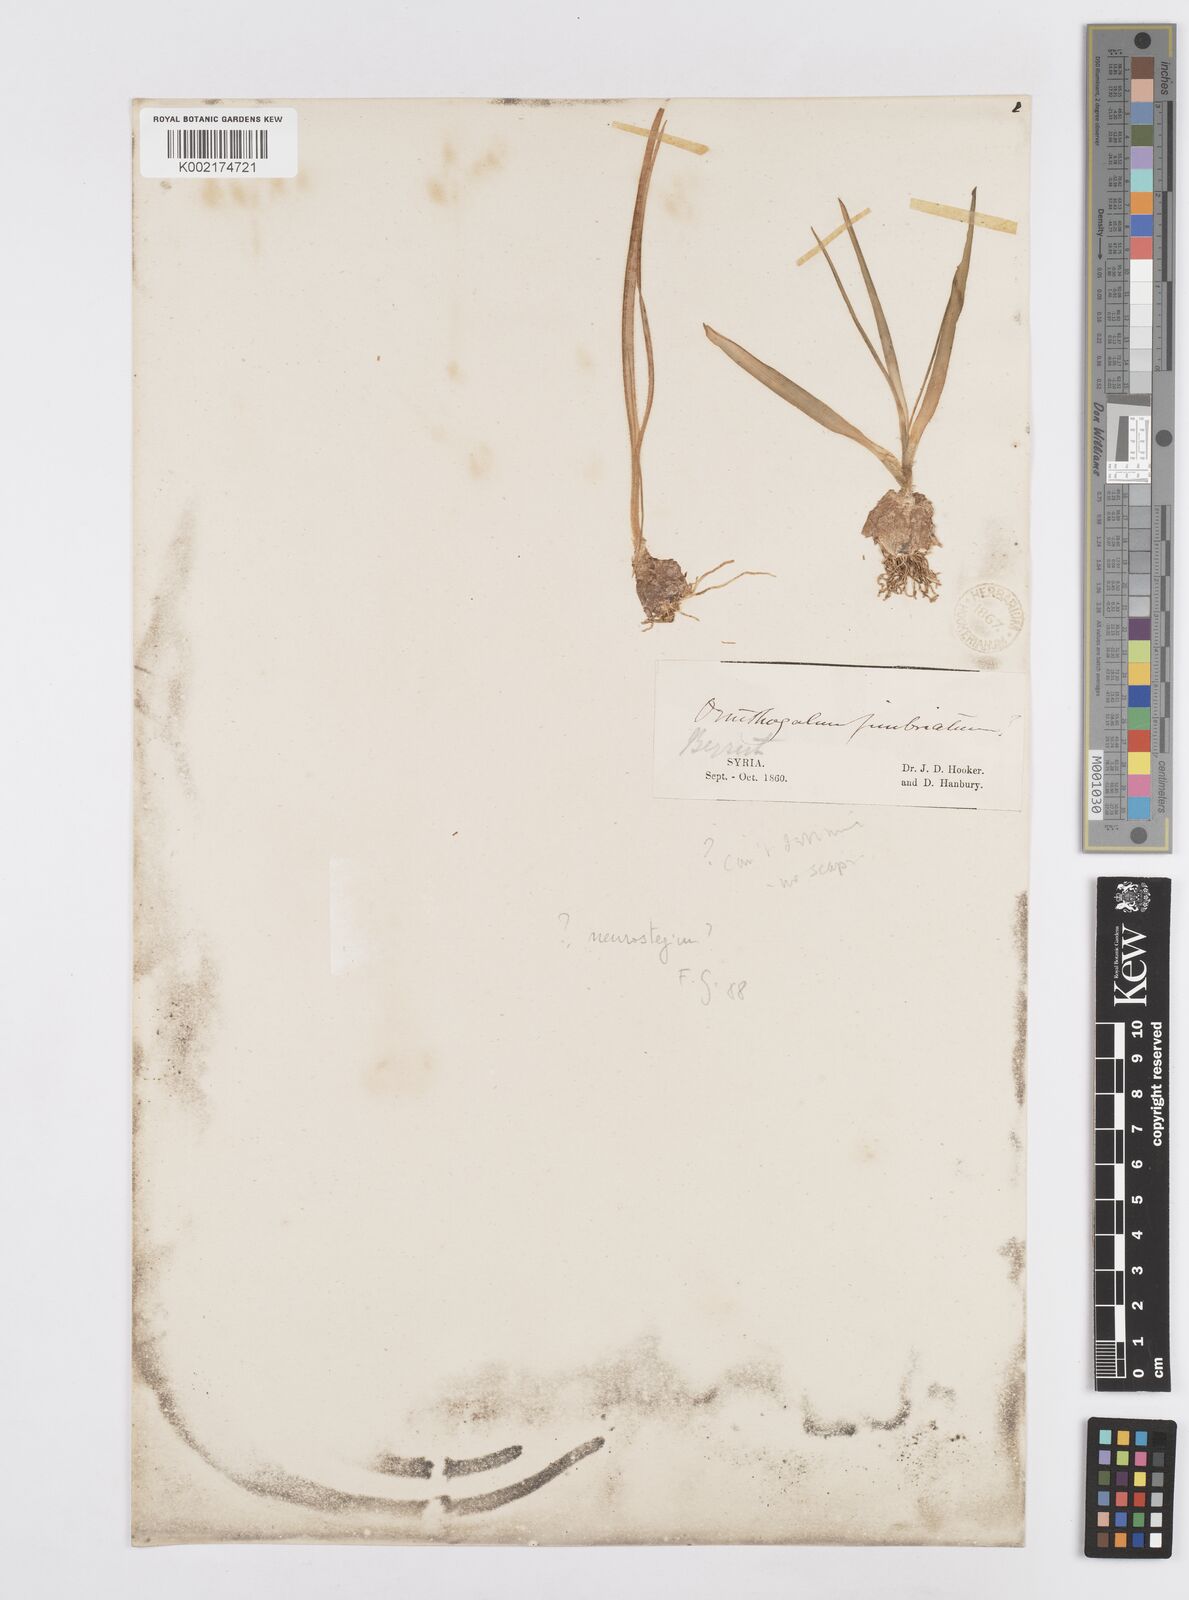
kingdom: Plantae
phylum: Tracheophyta
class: Liliopsida
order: Asparagales
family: Asparagaceae
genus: Ornithogalum
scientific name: Ornithogalum fimbriatum
